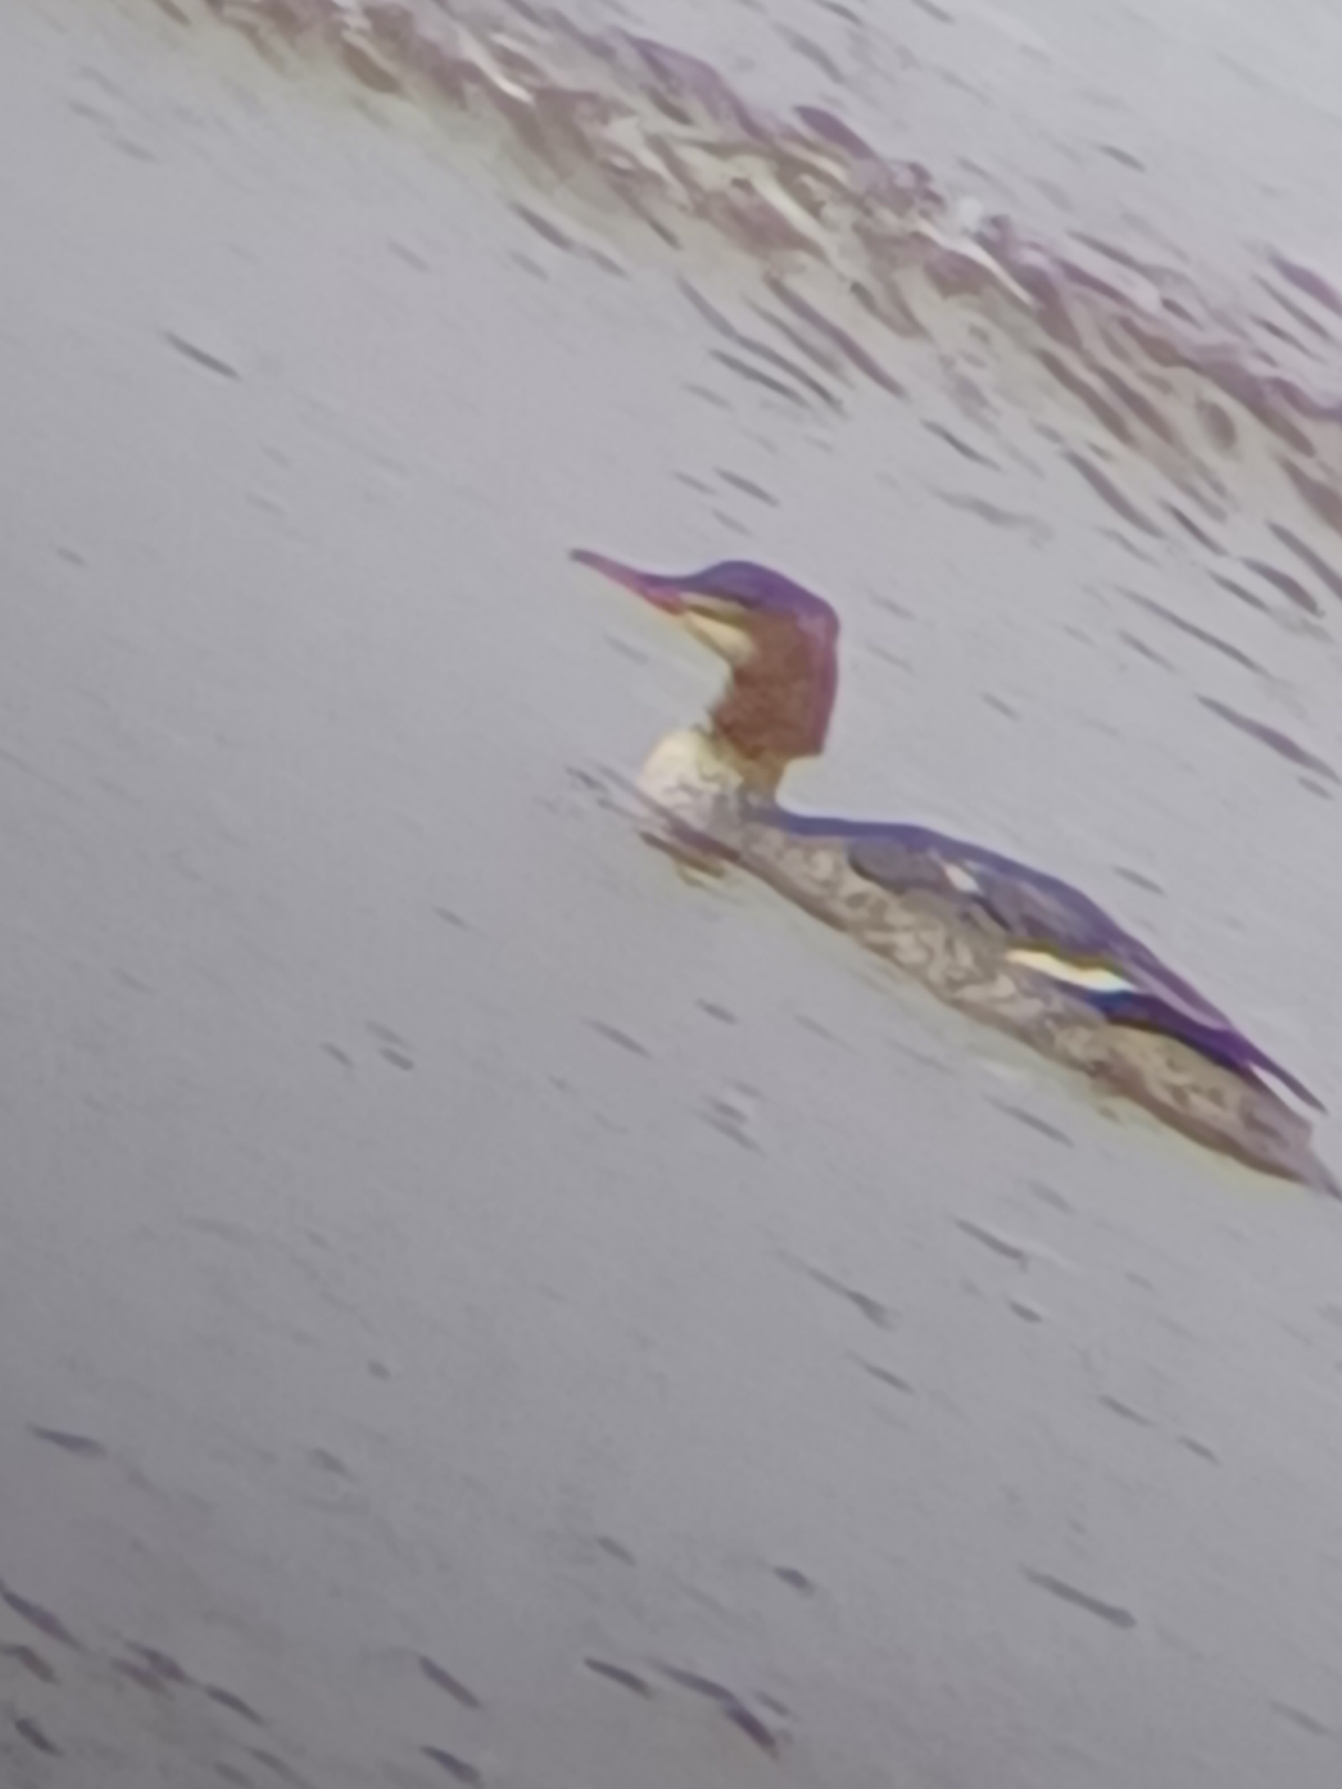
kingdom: Animalia
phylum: Chordata
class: Aves
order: Anseriformes
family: Anatidae
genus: Mergus
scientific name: Mergus merganser
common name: Stor skallesluger
